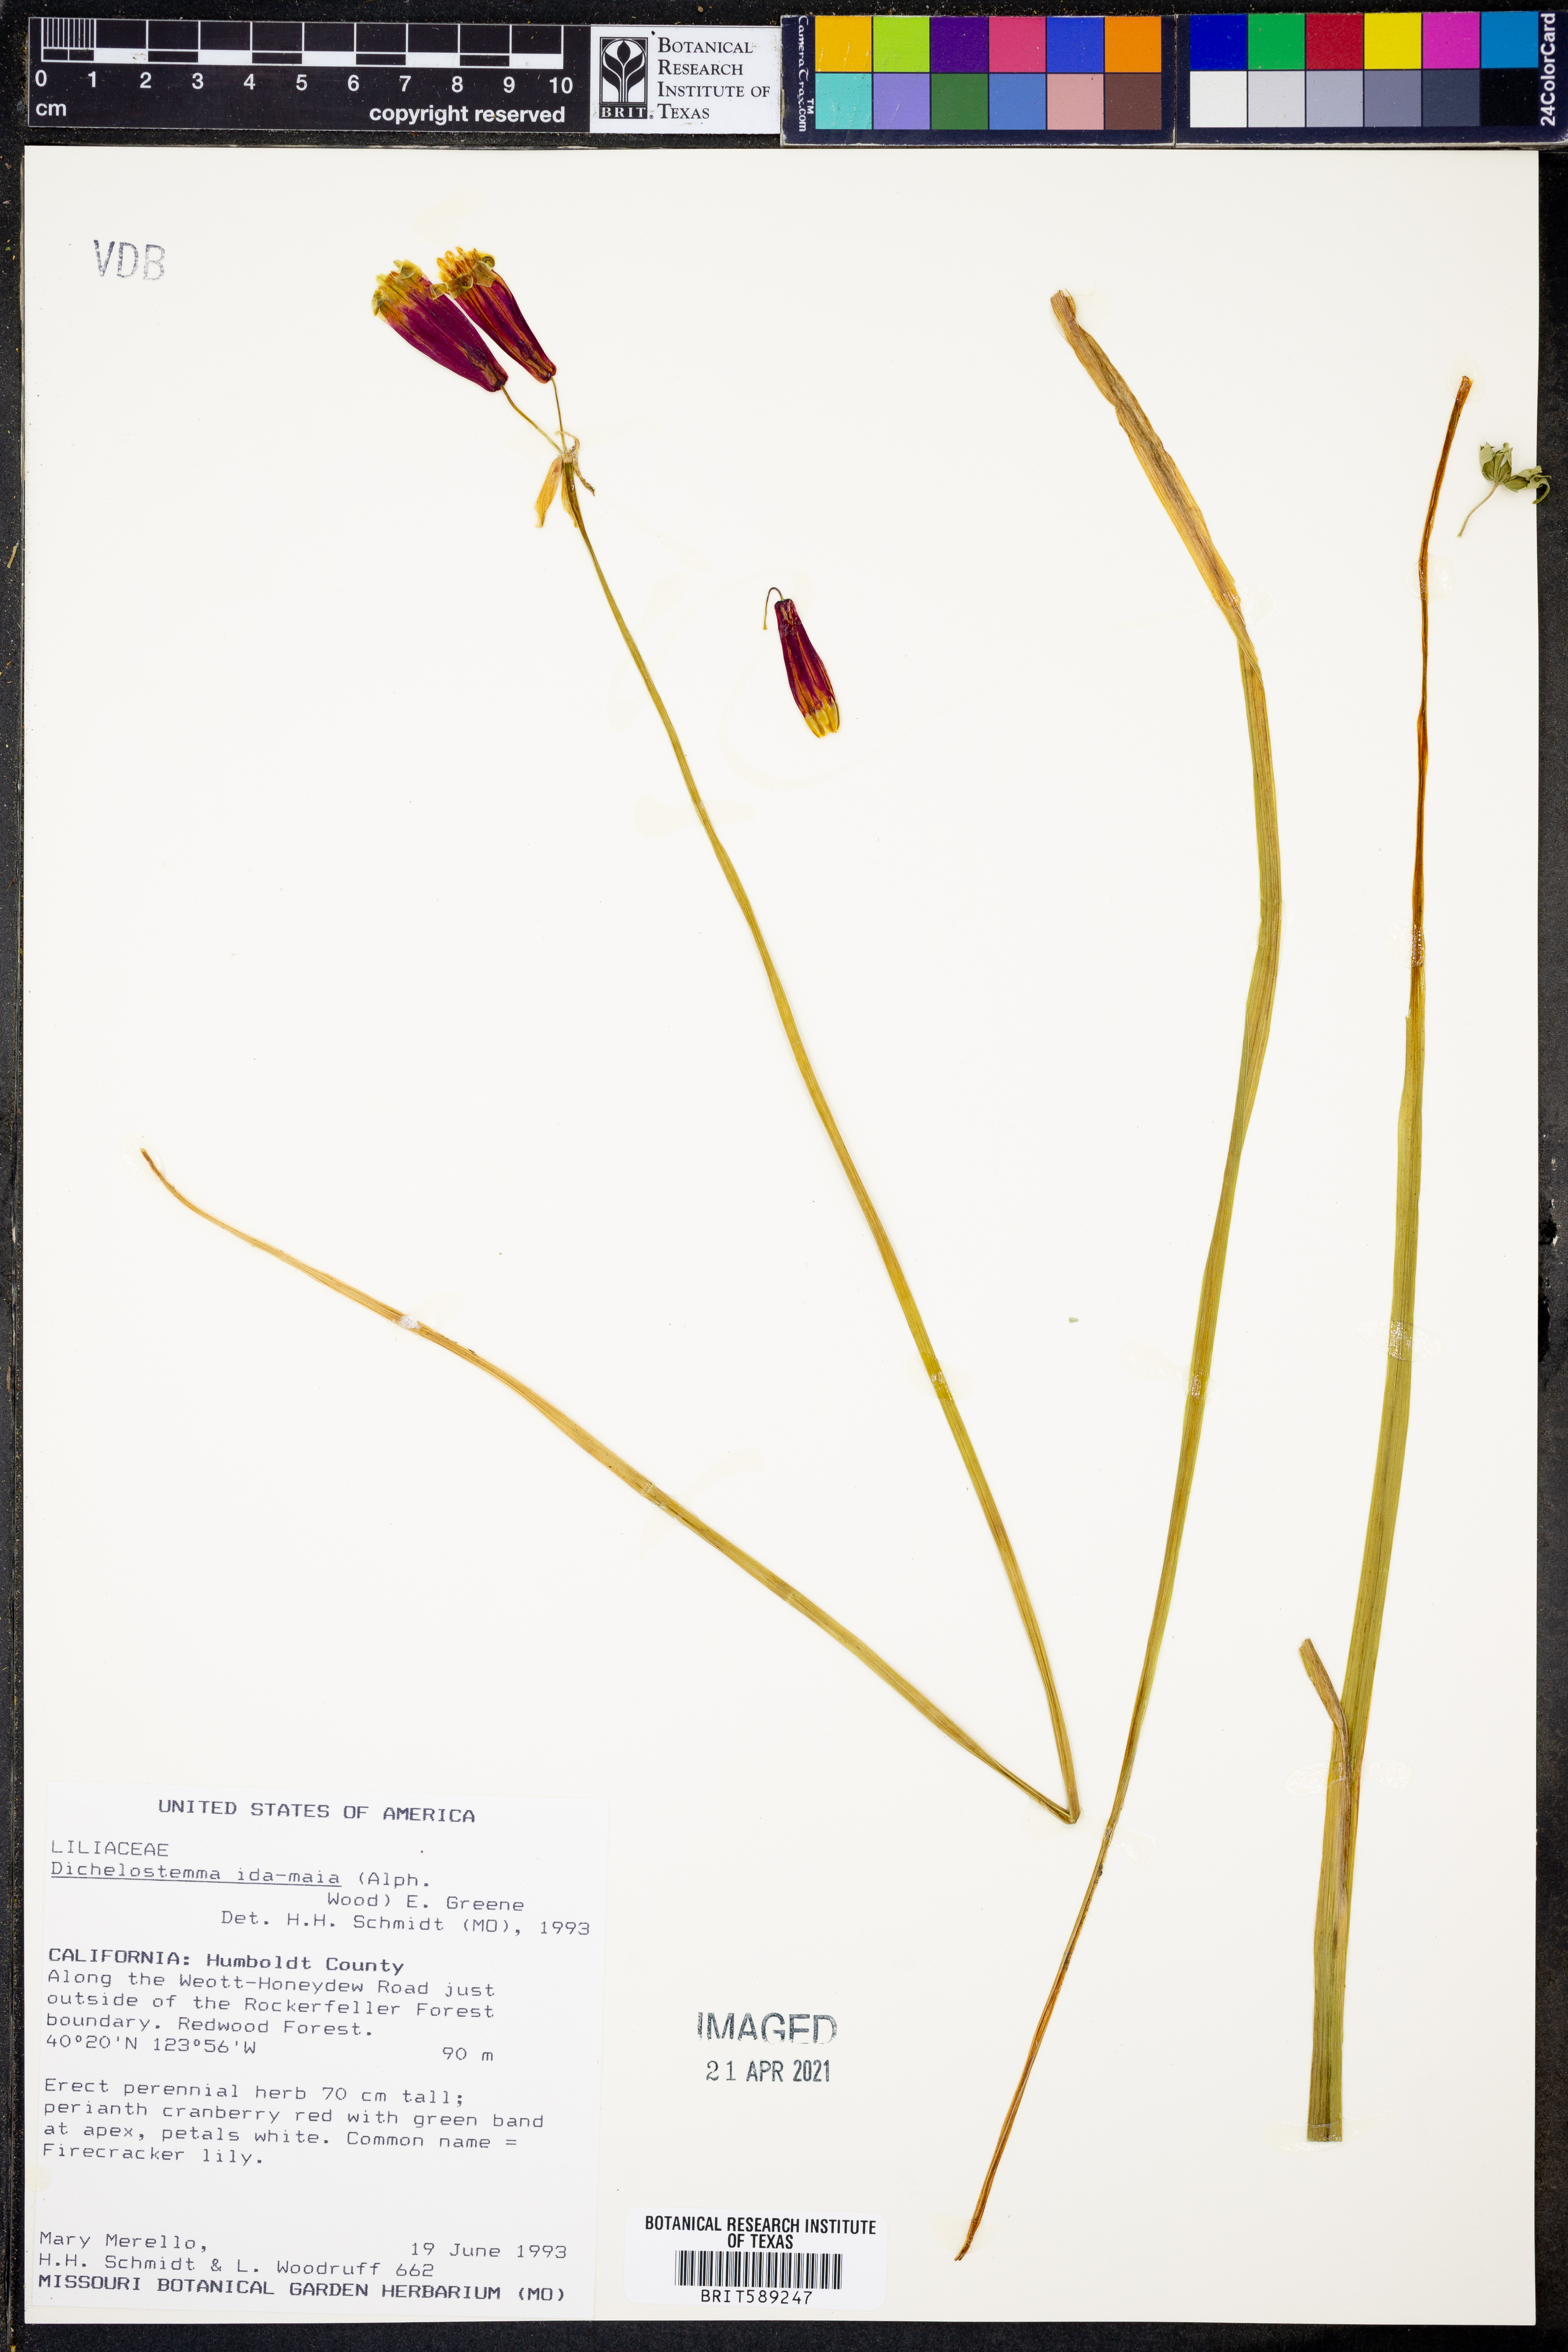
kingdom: Plantae
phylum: Tracheophyta
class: Liliopsida
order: Asparagales
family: Asparagaceae
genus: Dichelostemma
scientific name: Dichelostemma ida-maia
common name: Firecracker-flower
